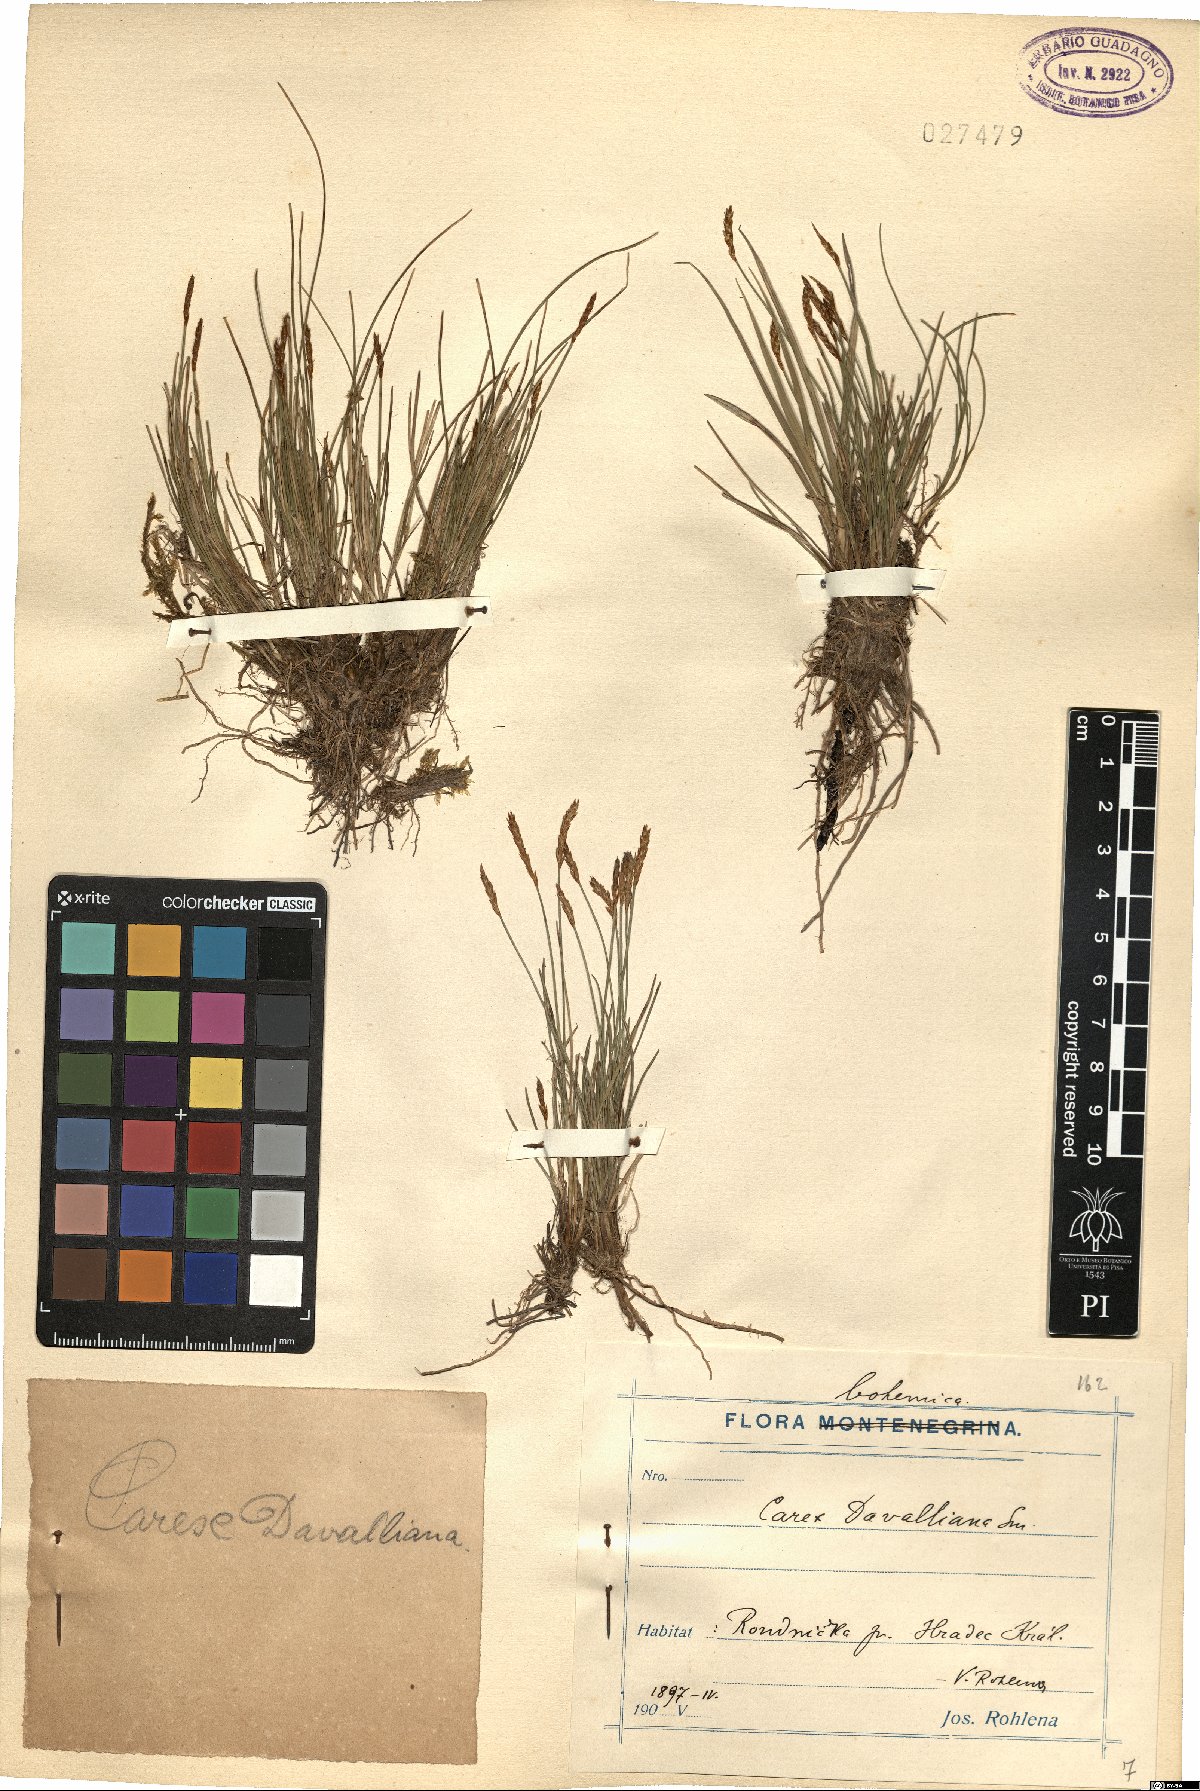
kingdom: Plantae
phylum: Tracheophyta
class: Liliopsida
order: Poales
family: Cyperaceae
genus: Carex
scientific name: Carex davalliana
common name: Davall's sedge
